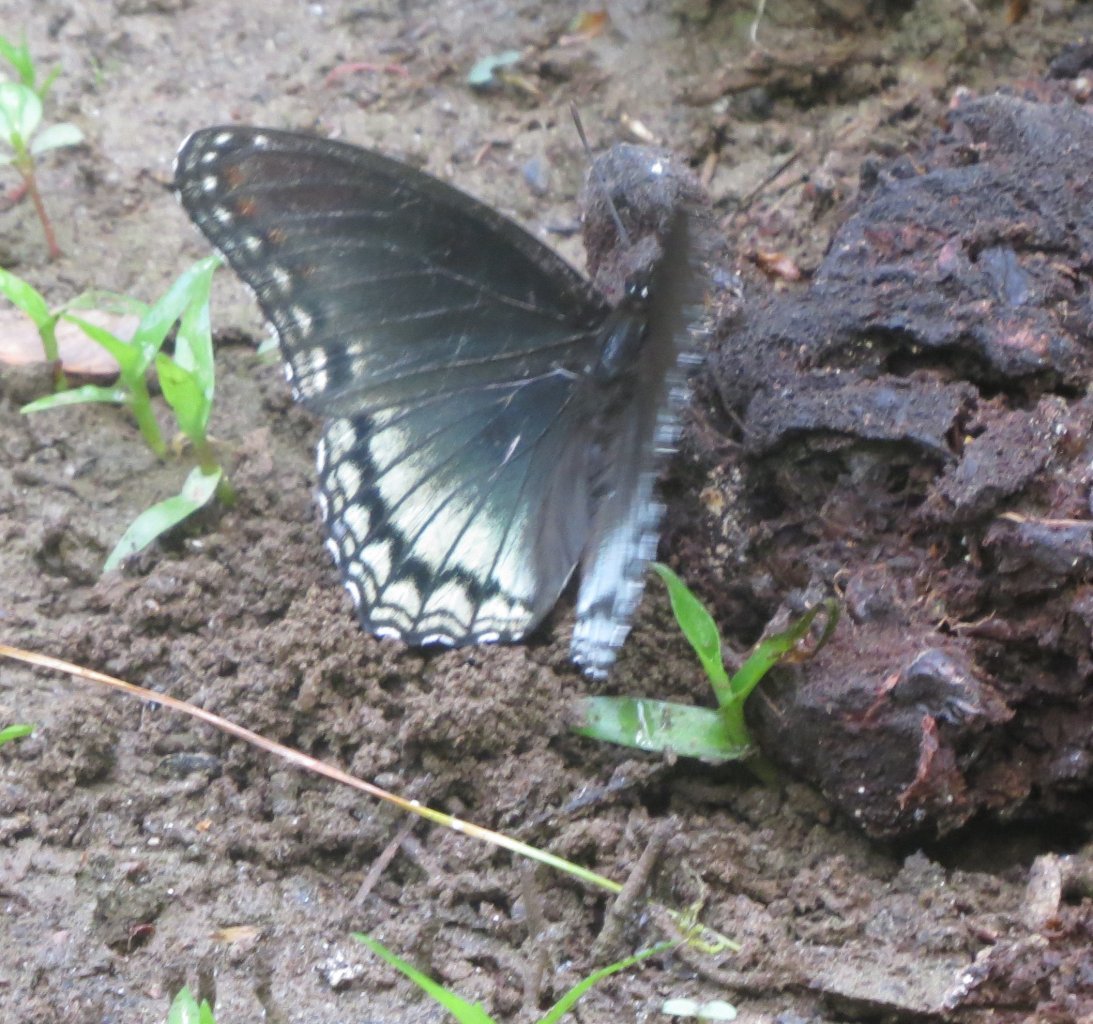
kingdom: Animalia
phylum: Arthropoda
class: Insecta
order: Lepidoptera
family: Nymphalidae
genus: Limenitis
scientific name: Limenitis astyanax
